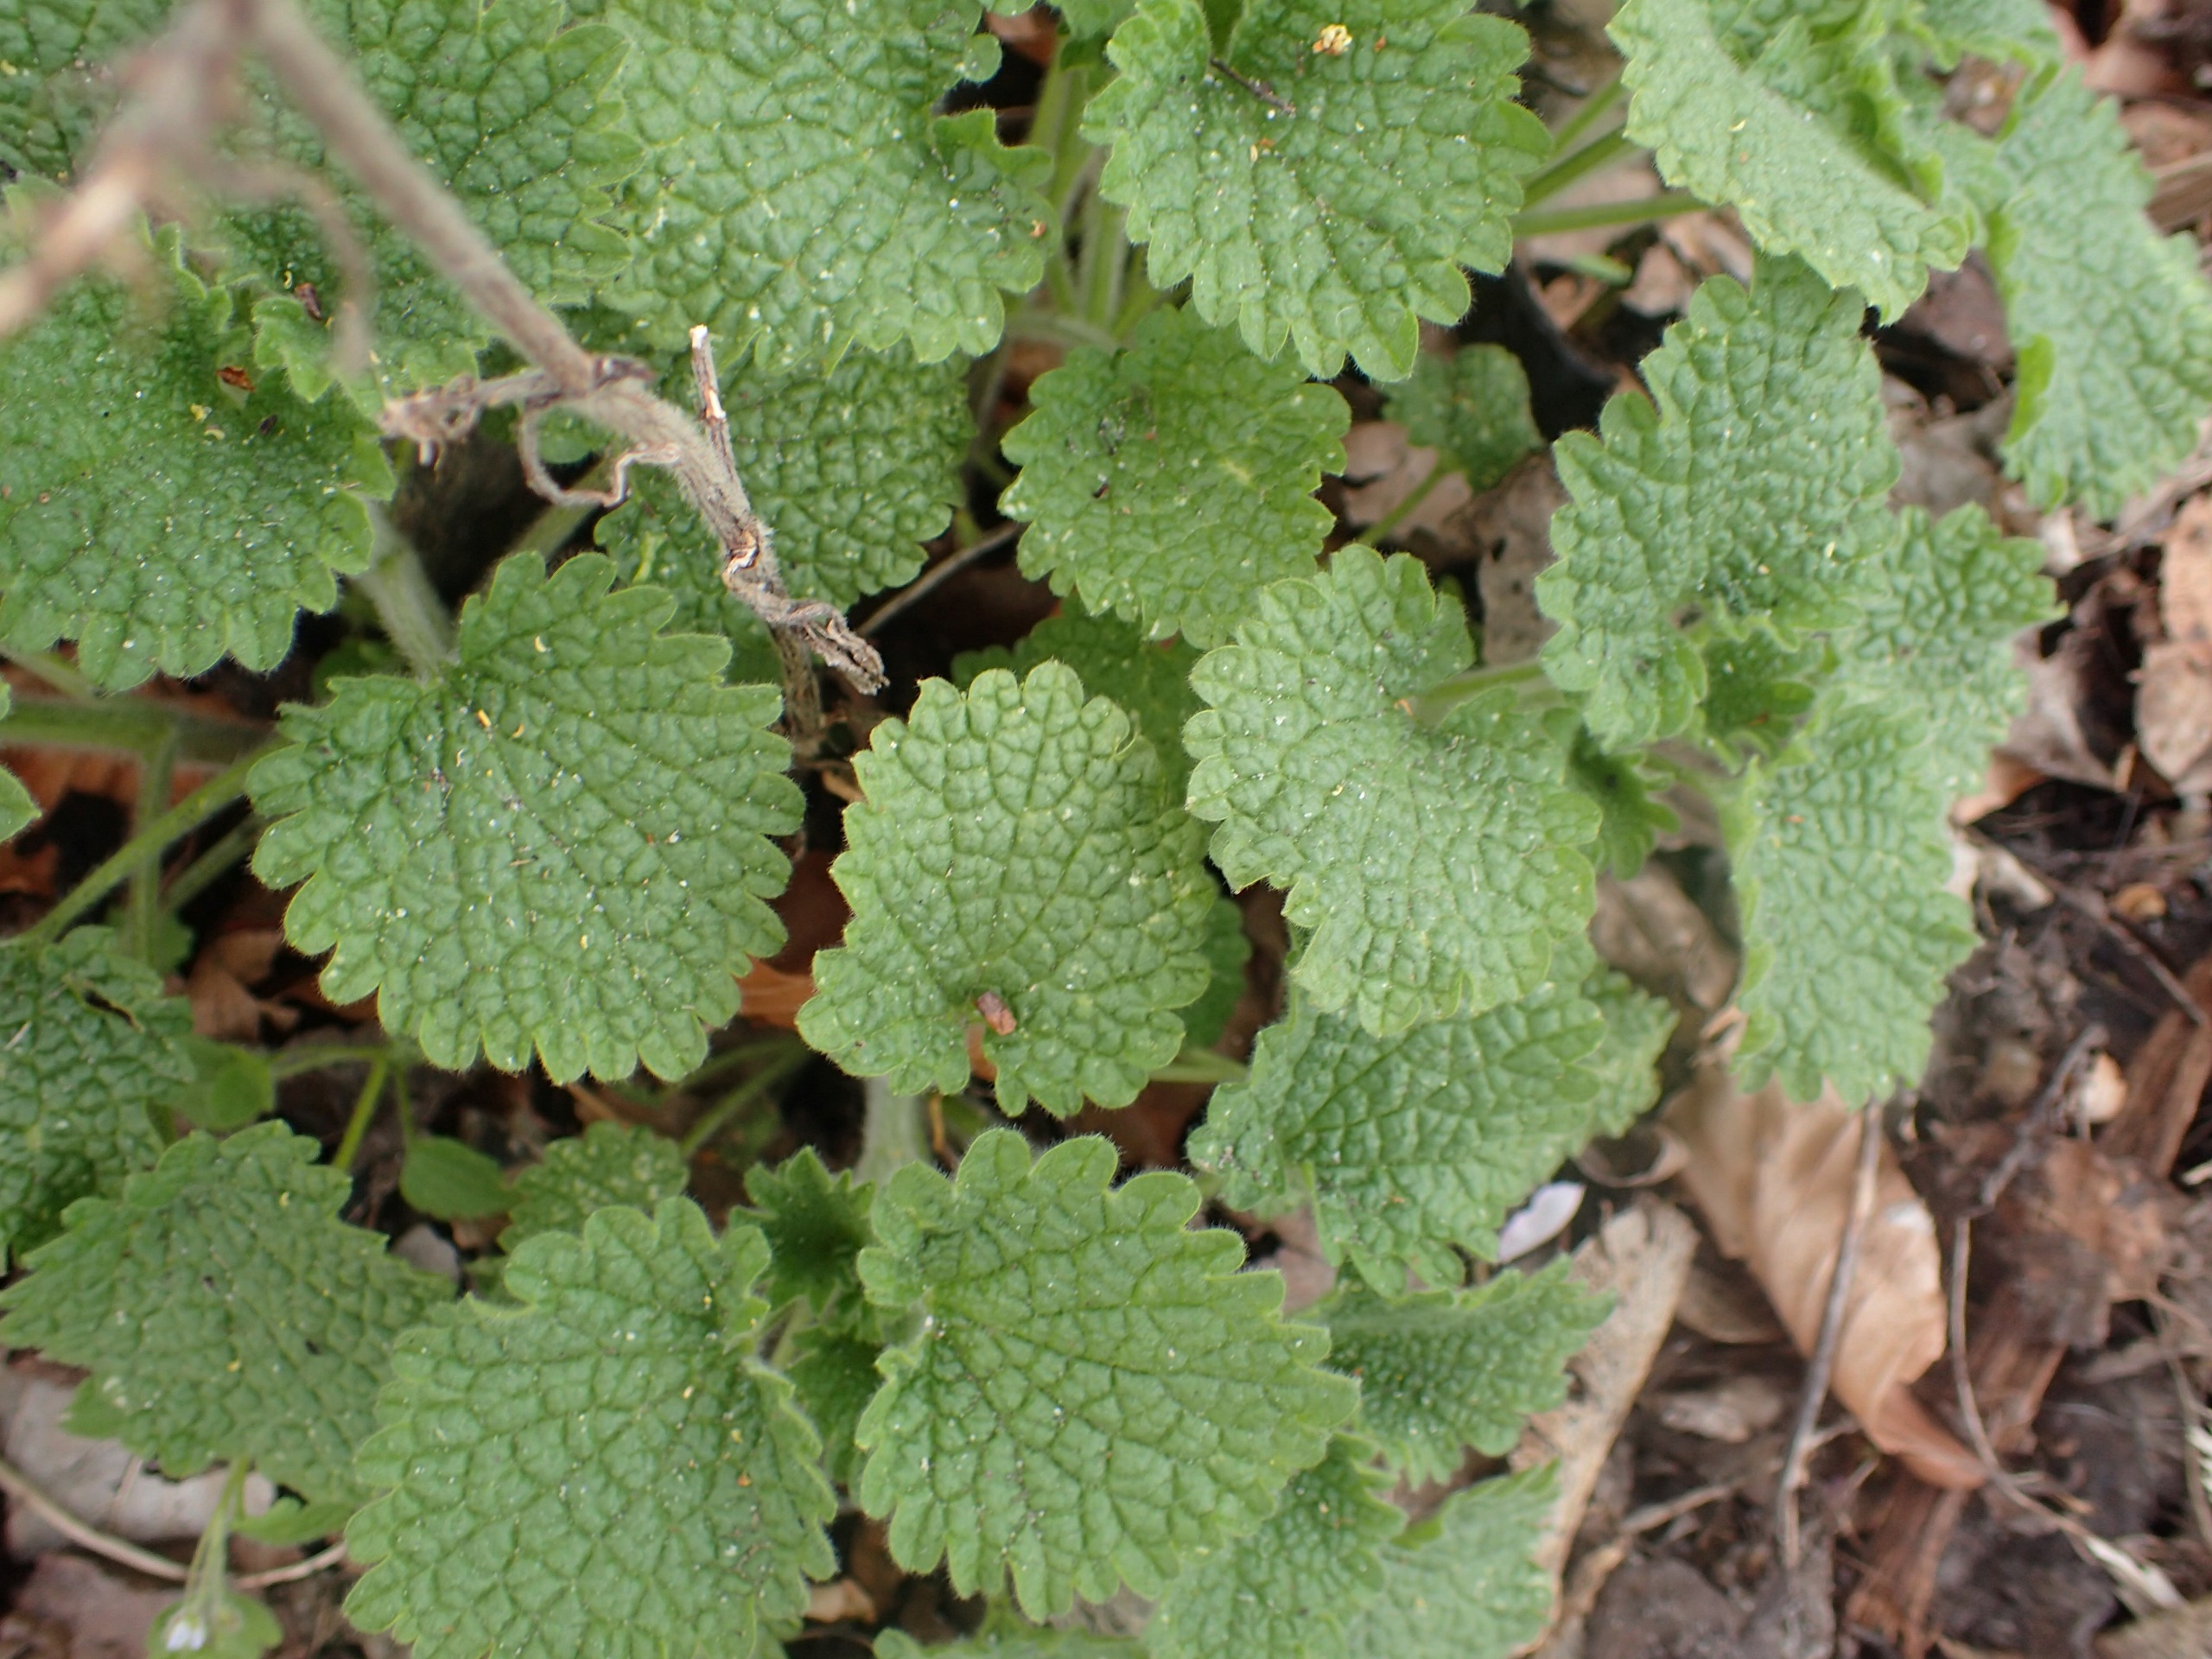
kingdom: Plantae
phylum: Tracheophyta
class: Magnoliopsida
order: Lamiales
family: Lamiaceae
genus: Ballota
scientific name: Ballota nigra
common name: Rød tandbæger
